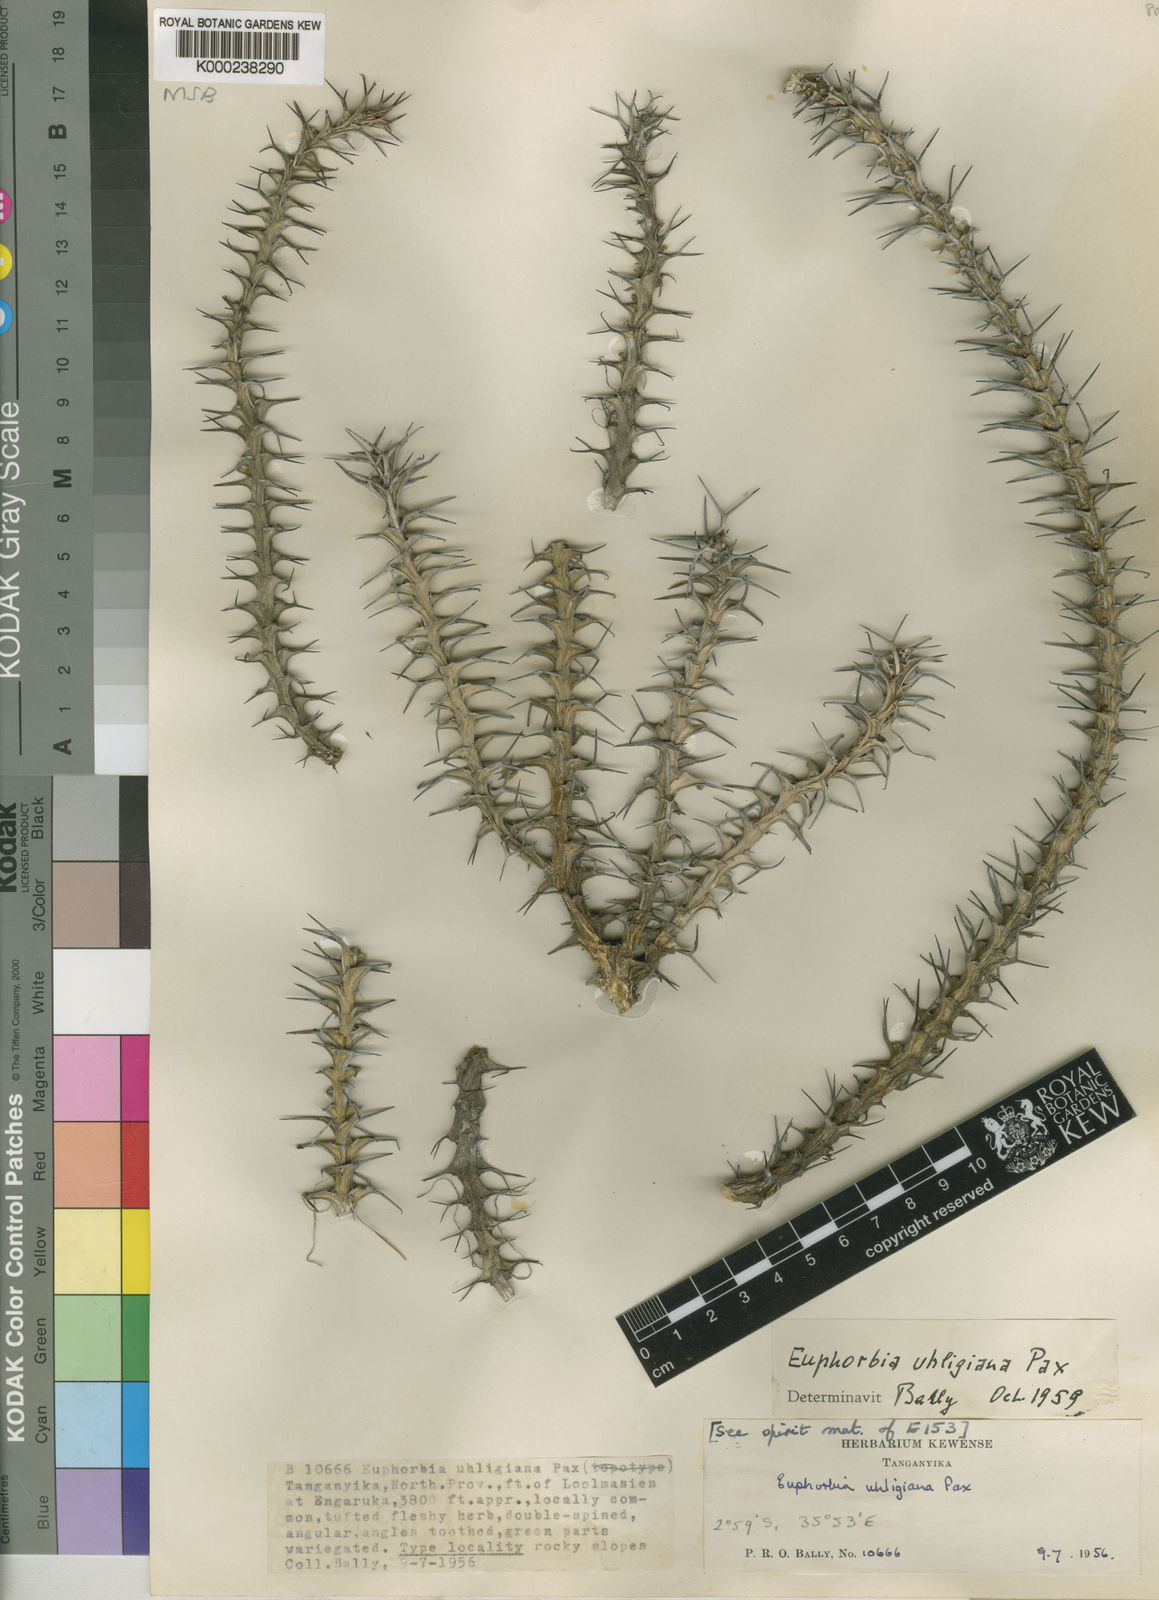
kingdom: Plantae
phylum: Tracheophyta
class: Magnoliopsida
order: Malpighiales
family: Euphorbiaceae
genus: Euphorbia
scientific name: Euphorbia uhligiana
